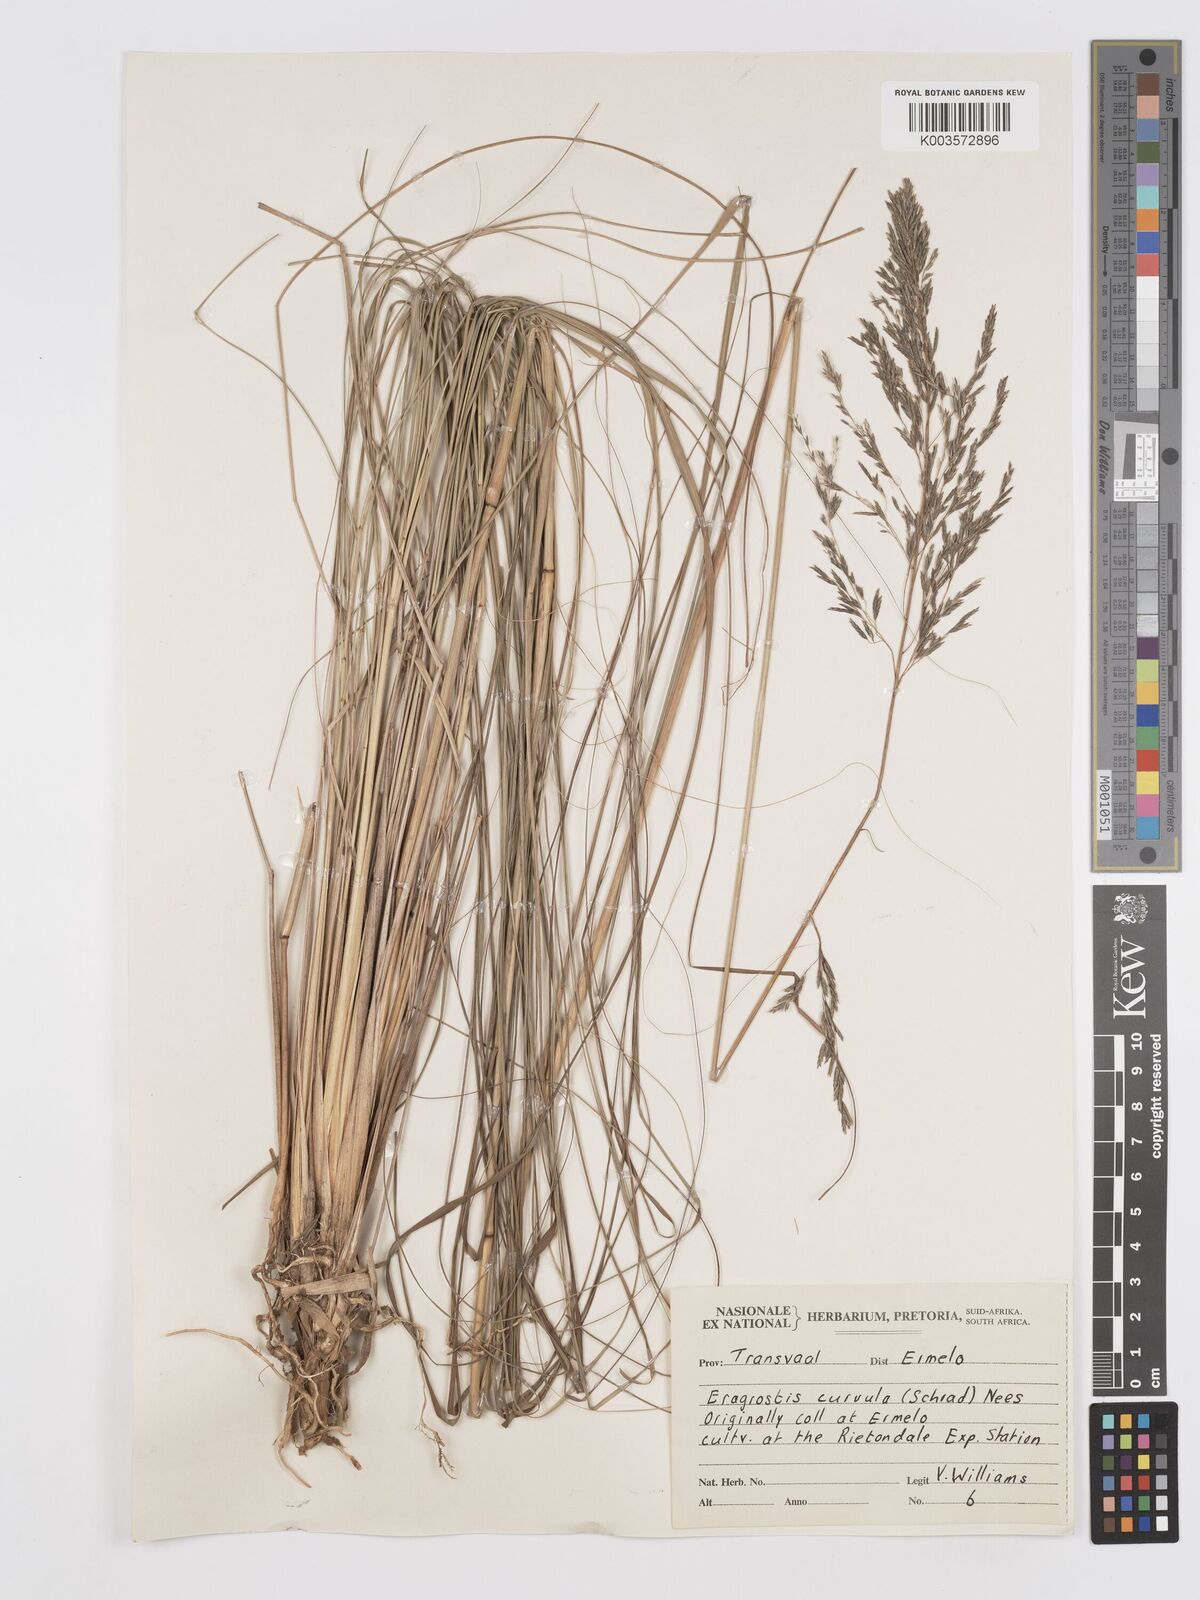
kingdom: Plantae
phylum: Tracheophyta
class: Liliopsida
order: Poales
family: Poaceae
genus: Eragrostis
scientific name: Eragrostis curvula
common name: African love-grass
